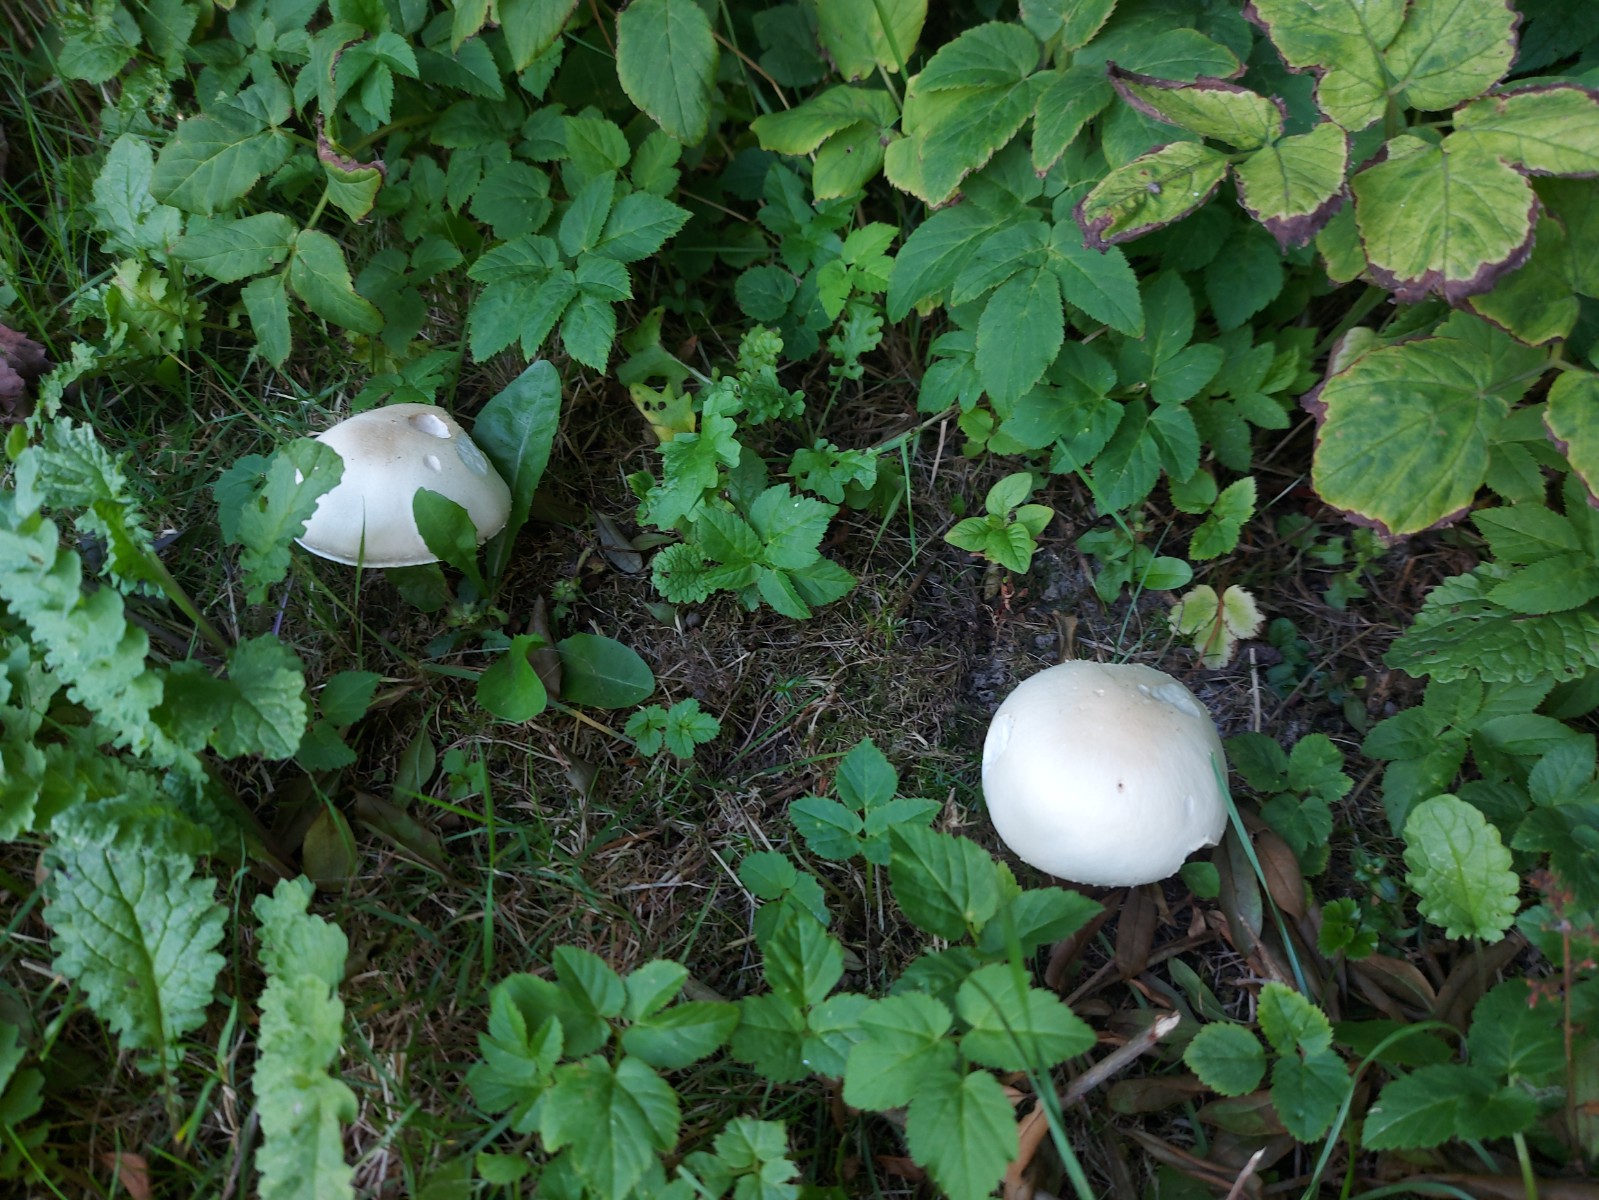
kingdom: Fungi
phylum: Basidiomycota
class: Agaricomycetes
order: Agaricales
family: Agaricaceae
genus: Agaricus
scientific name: Agaricus xanthodermus
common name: karbol-champignon
